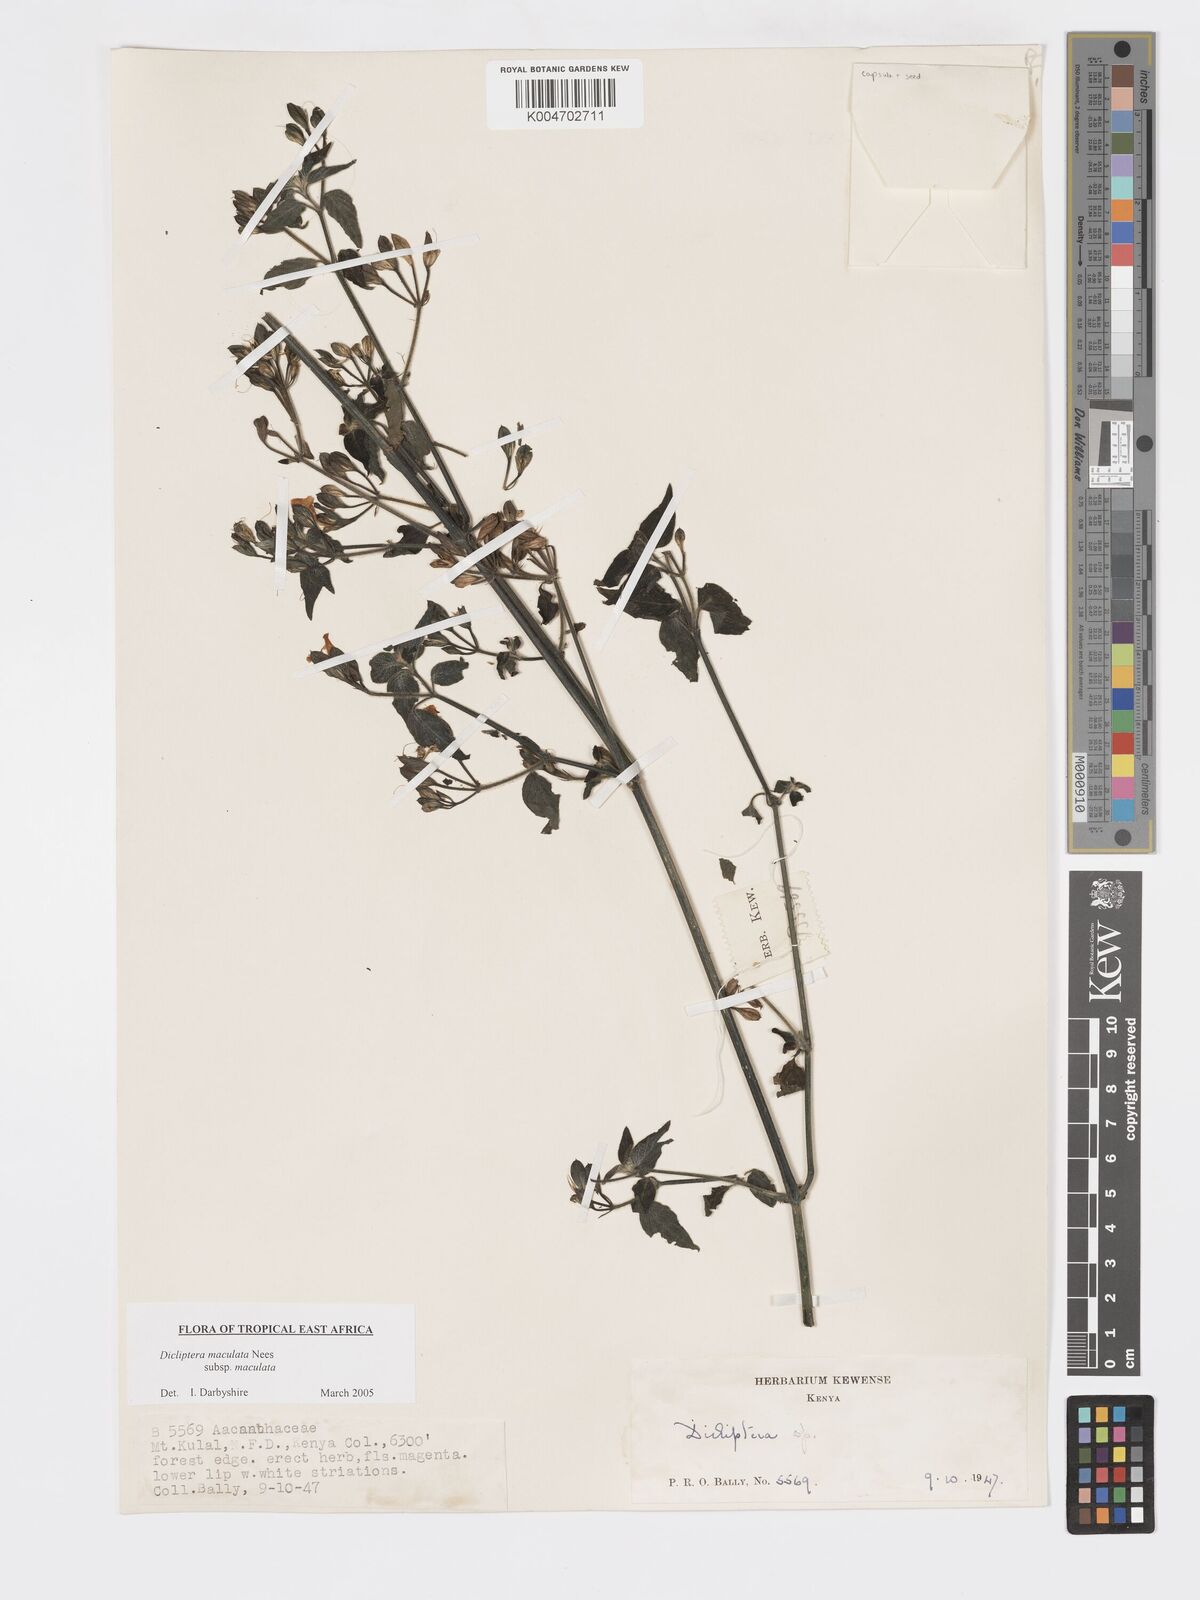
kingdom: Plantae
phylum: Tracheophyta
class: Magnoliopsida
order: Lamiales
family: Acanthaceae
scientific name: Acanthaceae
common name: Acanthaceae
